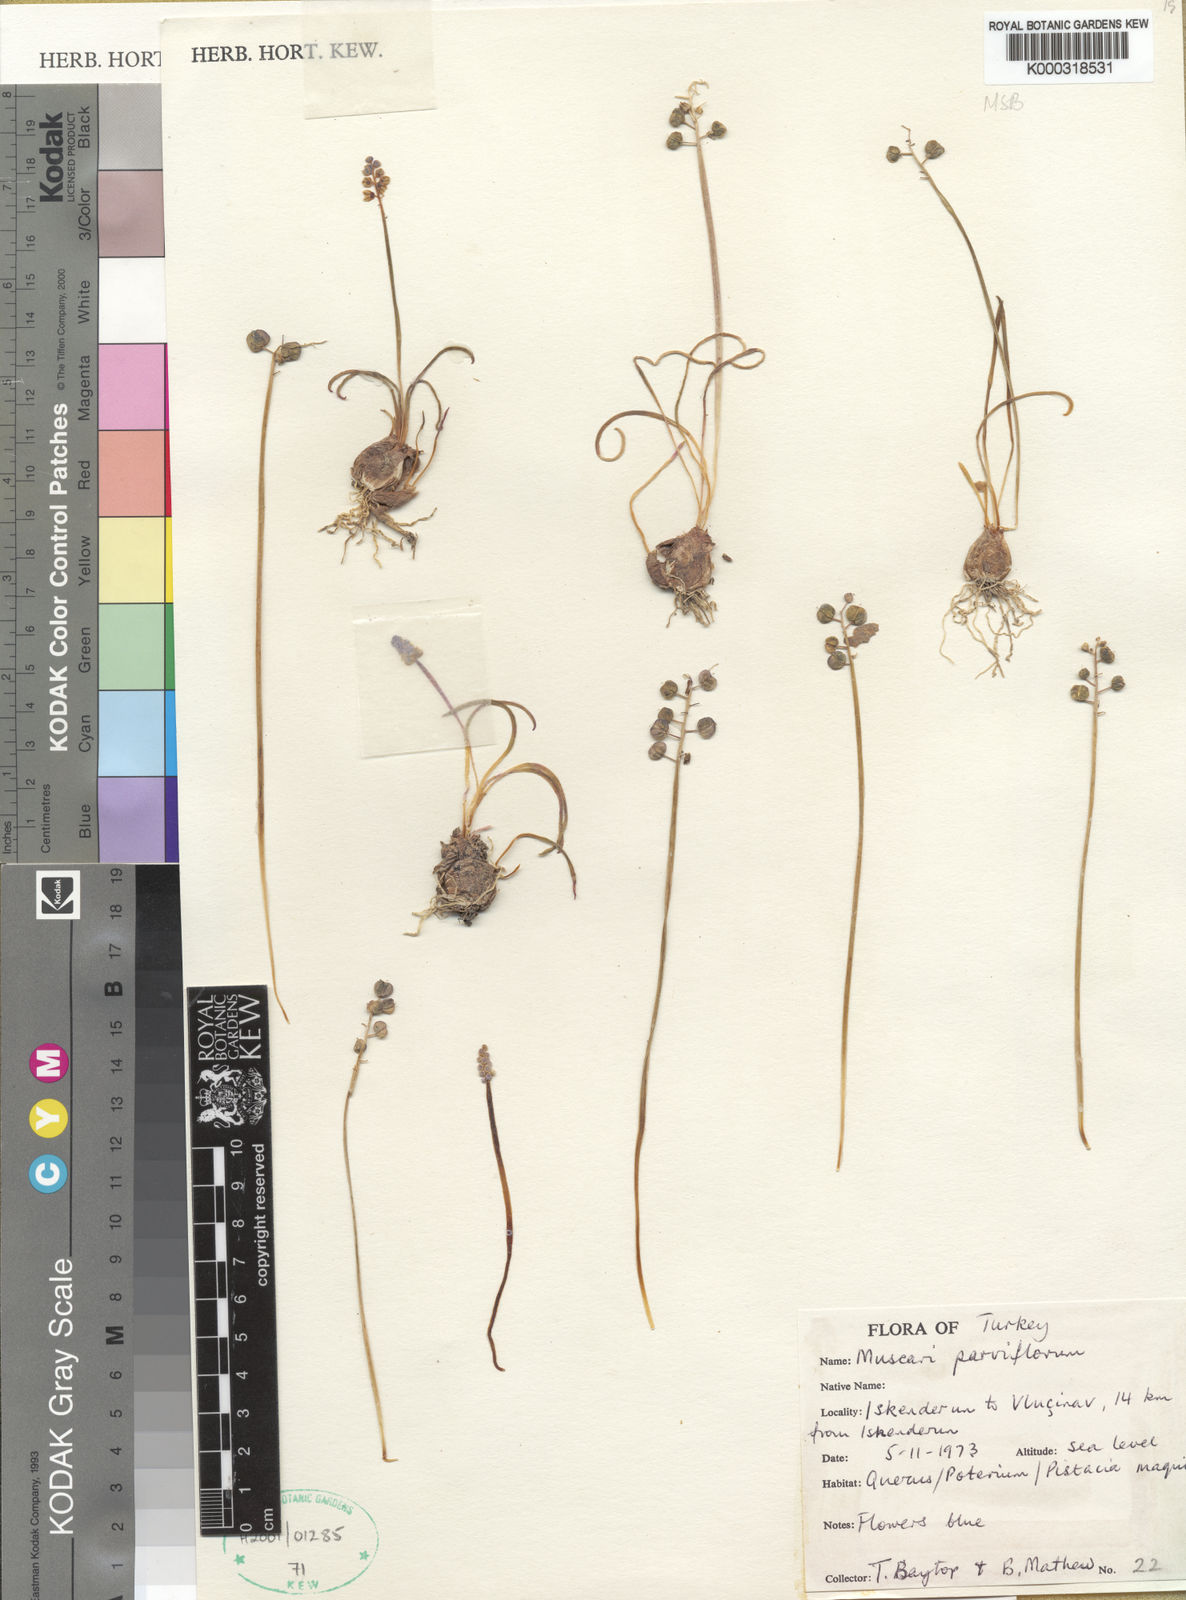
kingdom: Plantae
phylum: Tracheophyta
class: Liliopsida
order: Asparagales
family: Asparagaceae
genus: Muscari
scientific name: Muscari parviflorum
